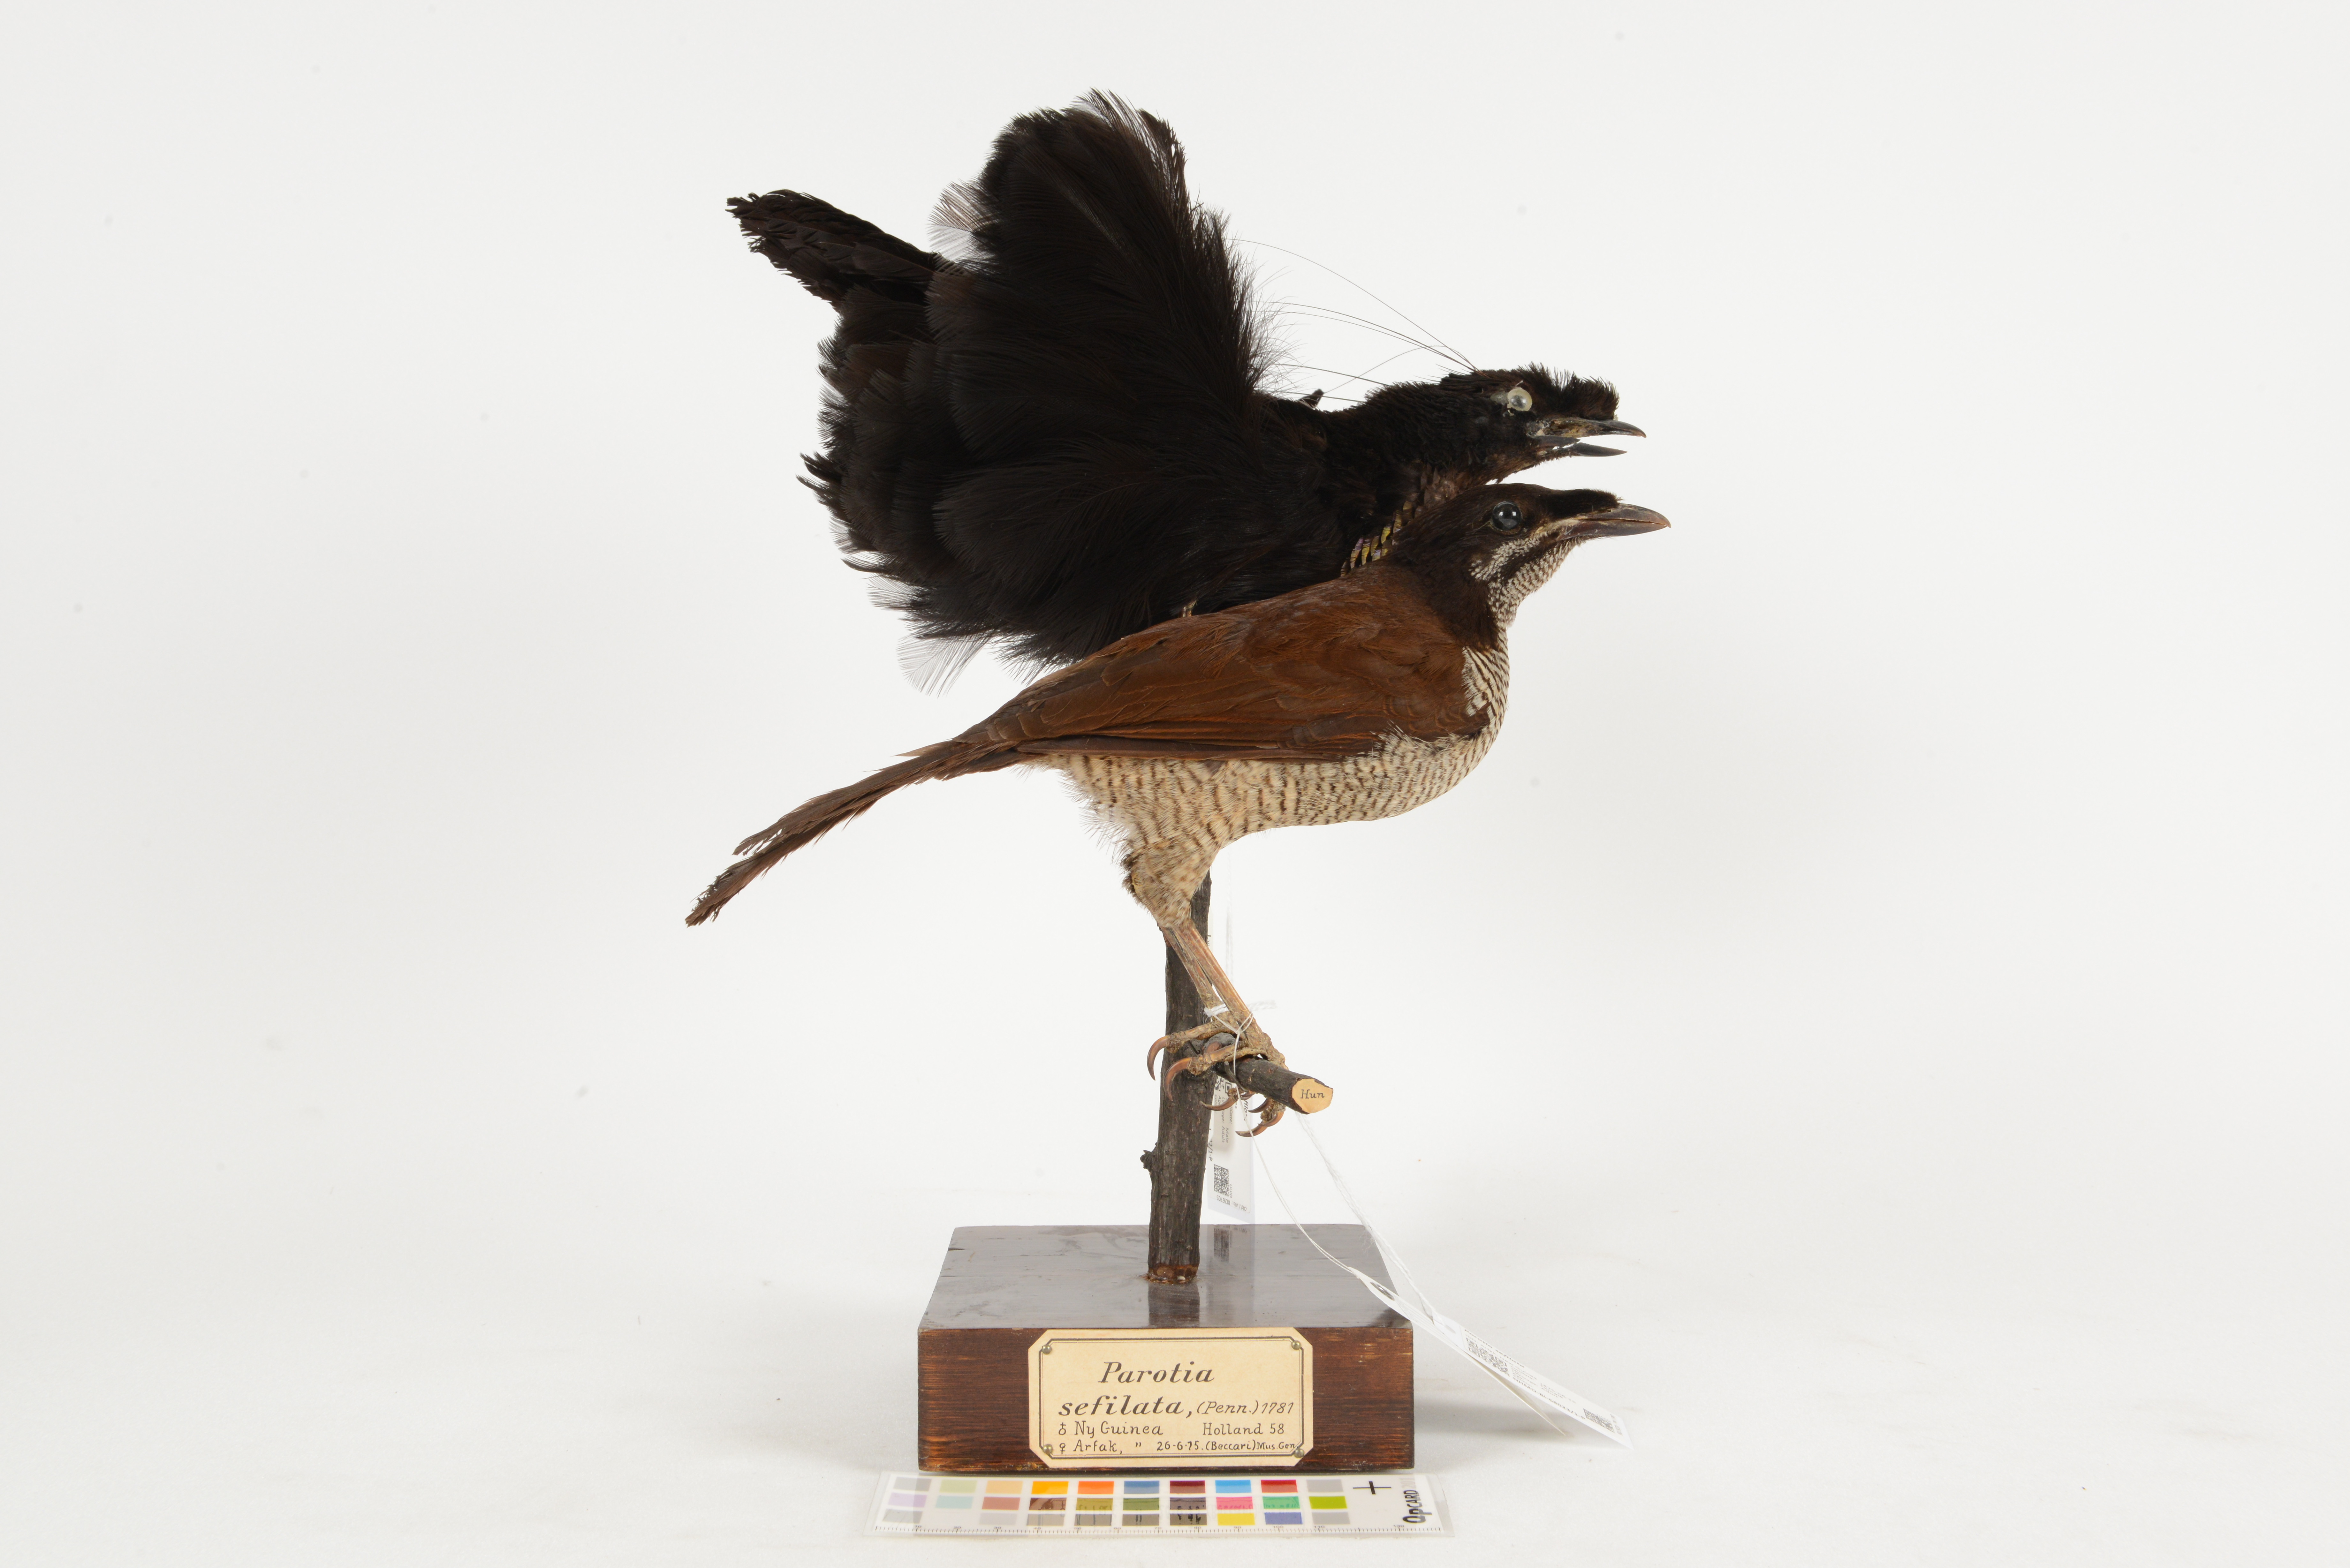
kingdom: Animalia
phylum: Chordata
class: Aves
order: Passeriformes
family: Paradisaeidae
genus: Parotia
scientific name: Parotia sefilata
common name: Western parotia
